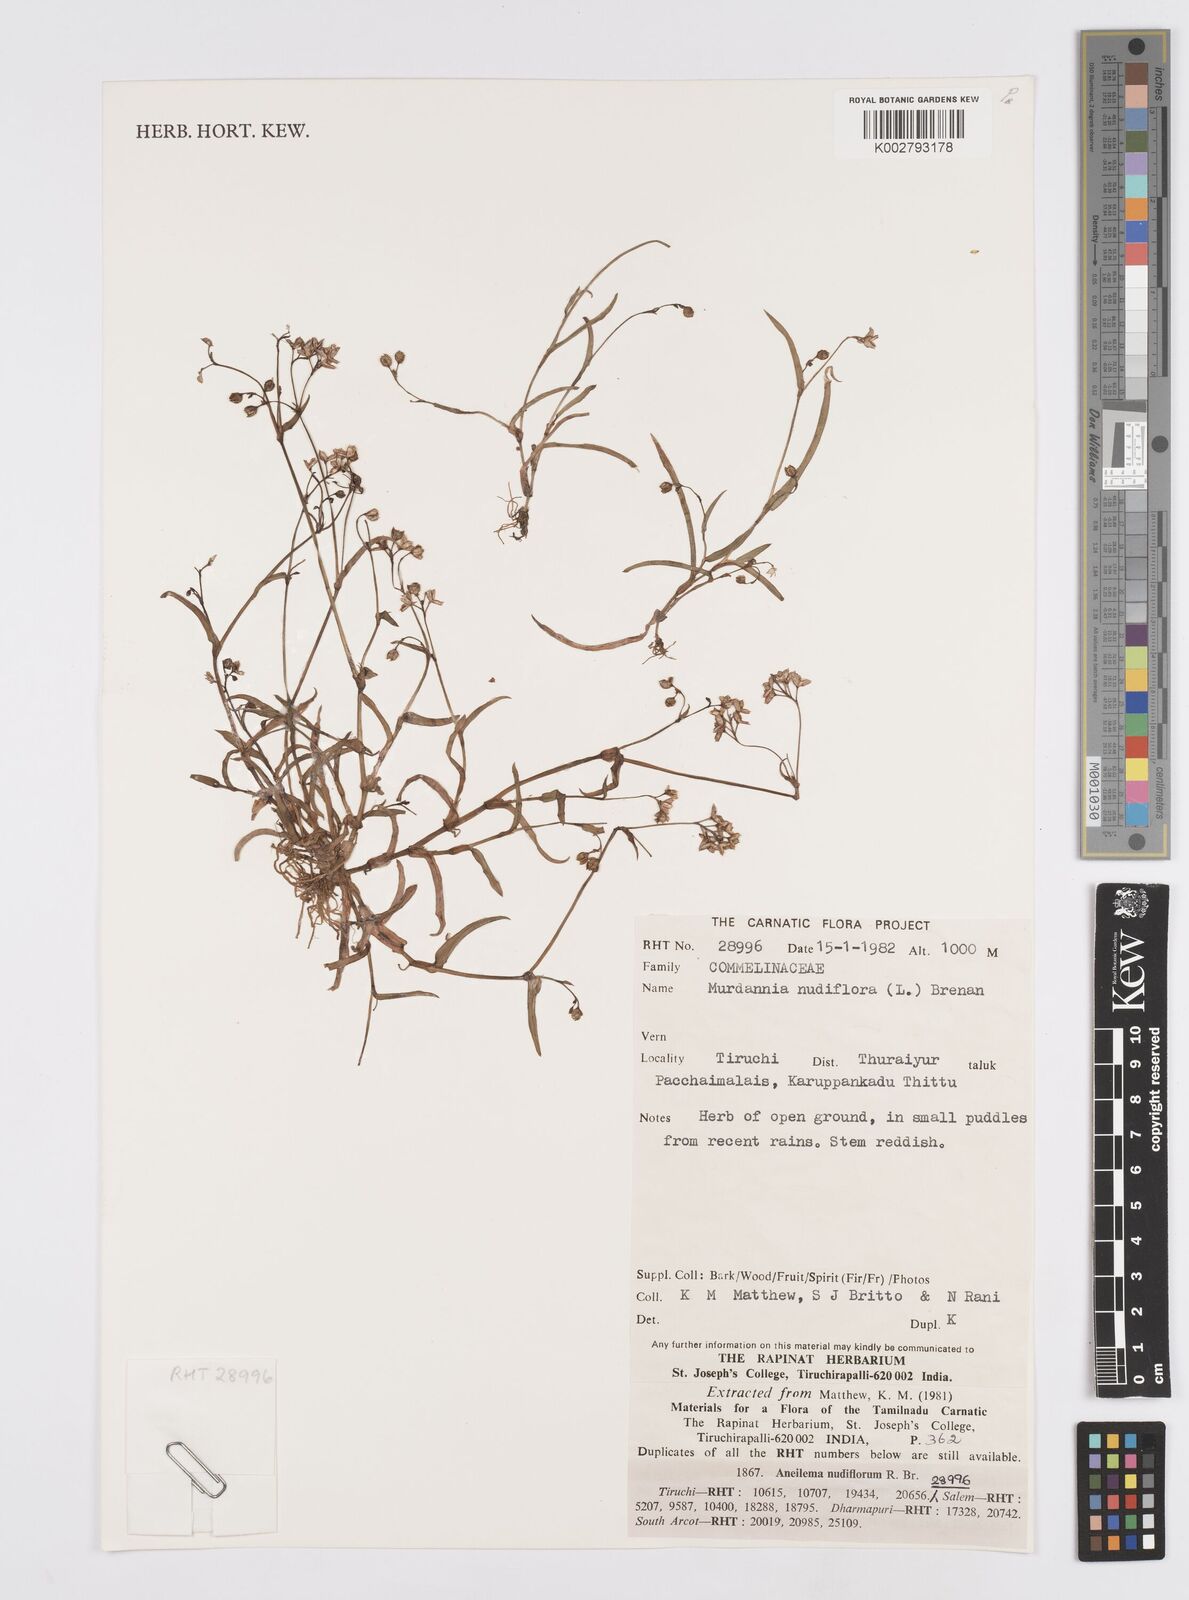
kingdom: Plantae
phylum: Tracheophyta
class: Liliopsida
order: Commelinales
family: Commelinaceae
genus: Murdannia
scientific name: Murdannia
